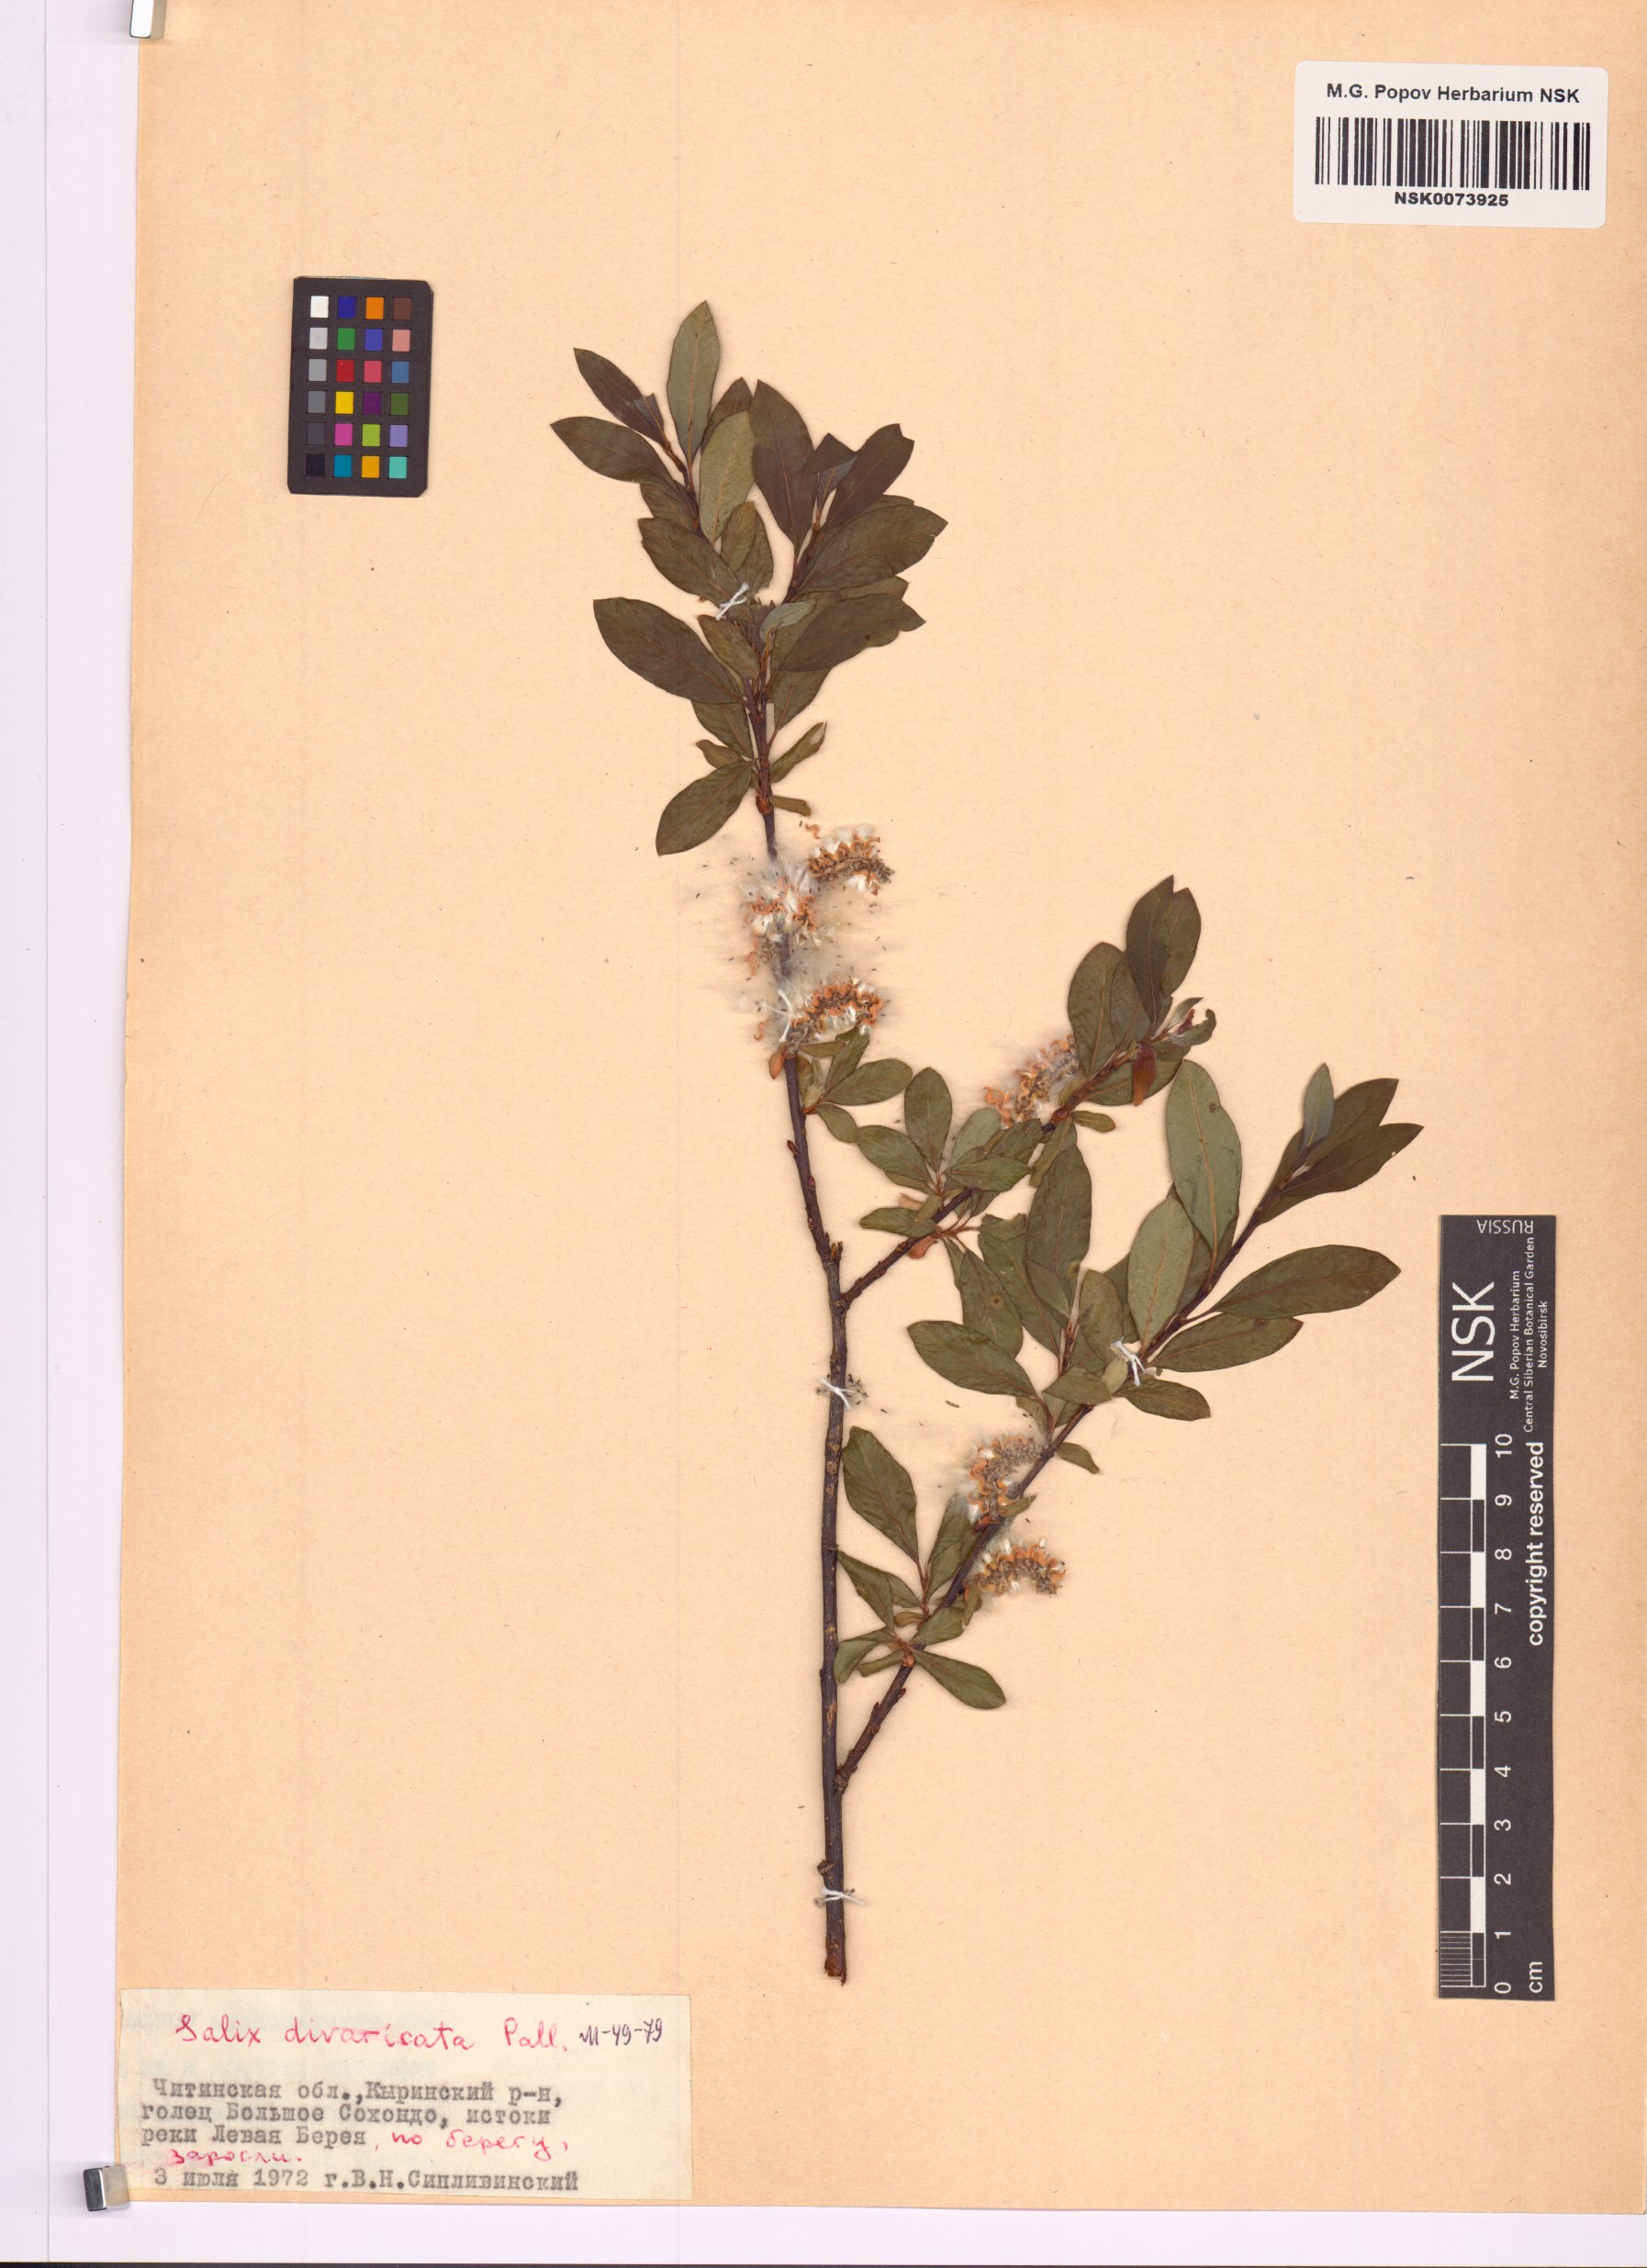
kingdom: Plantae
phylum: Tracheophyta
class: Magnoliopsida
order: Malpighiales
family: Salicaceae
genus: Salix
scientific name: Salix divaricata
